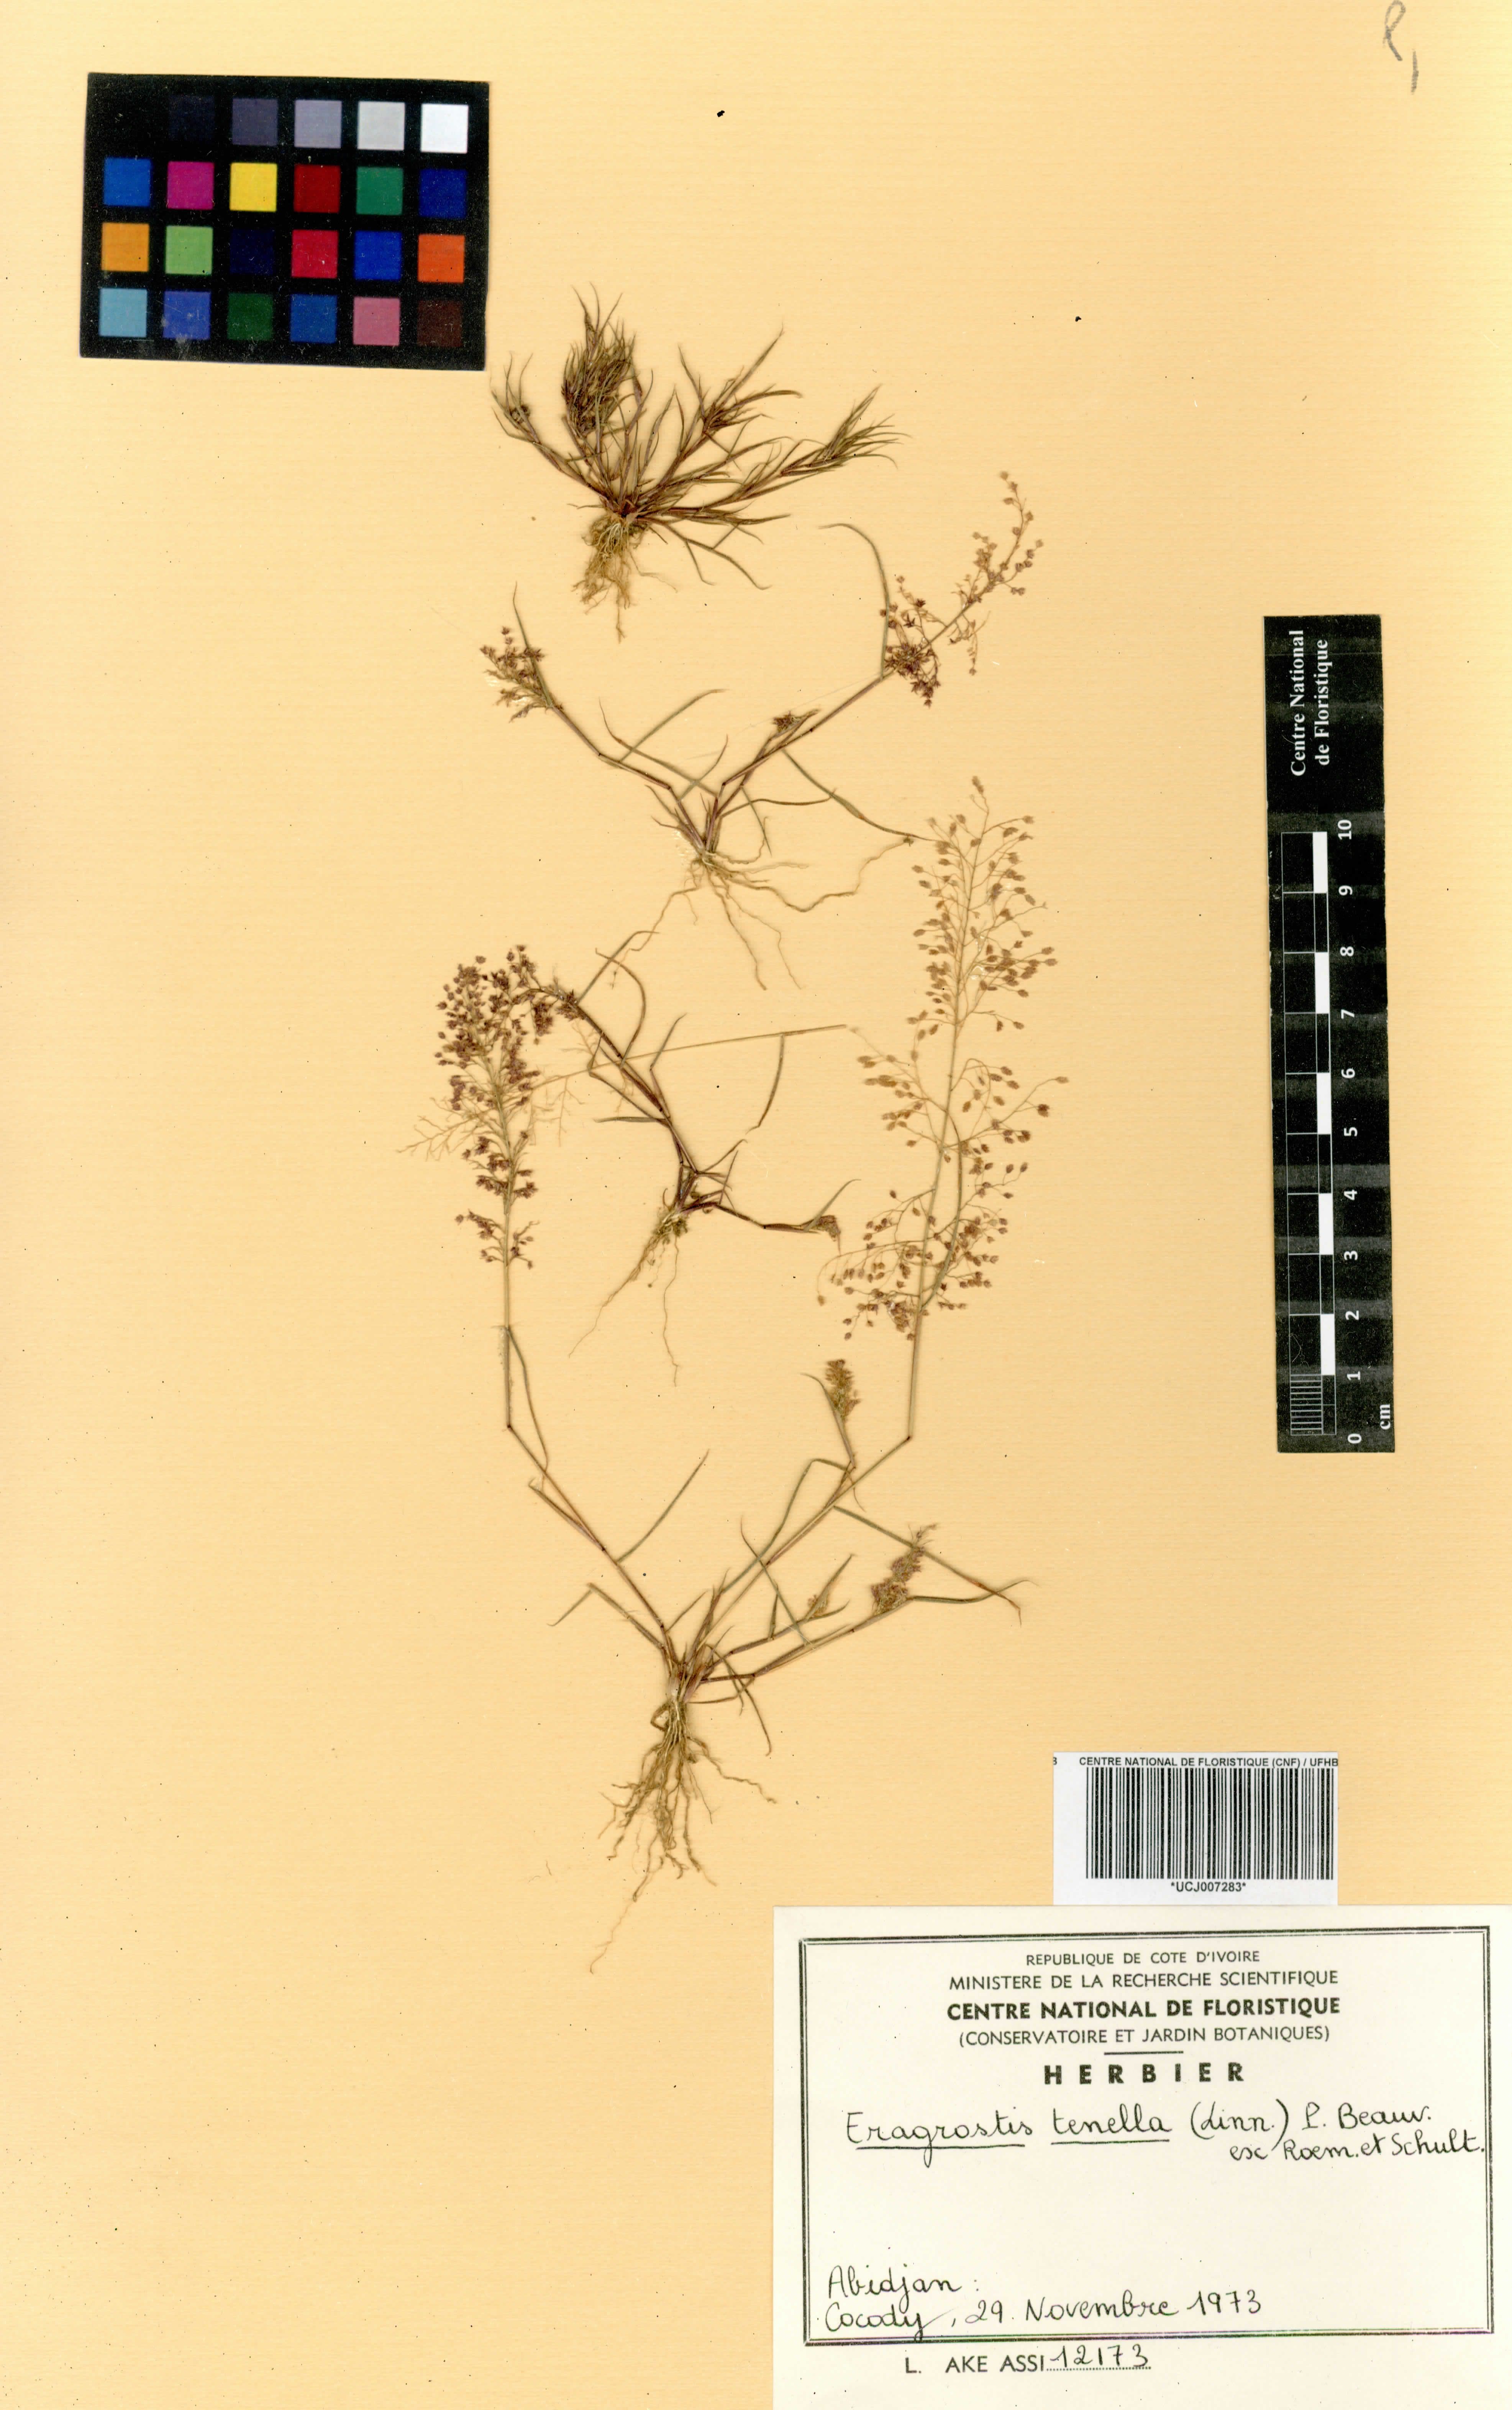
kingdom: Plantae
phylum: Tracheophyta
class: Liliopsida
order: Poales
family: Poaceae
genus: Eragrostis
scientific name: Eragrostis tenella
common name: Japanese lovegrass
